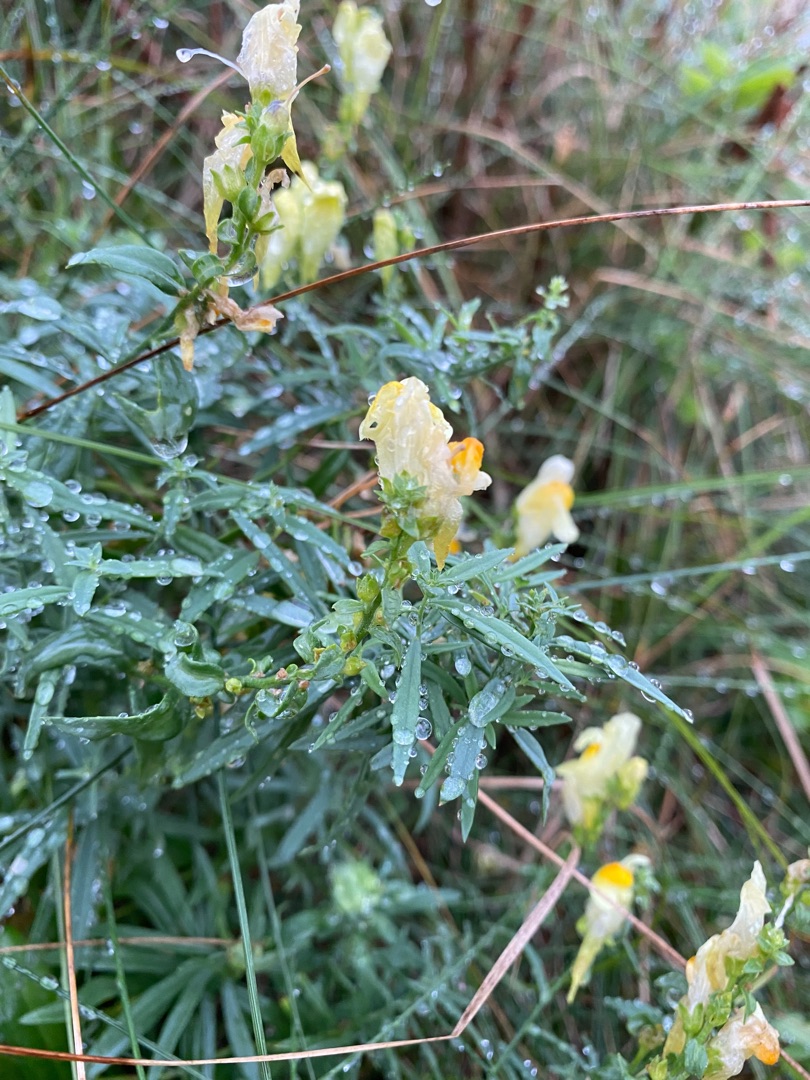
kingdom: Plantae
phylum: Tracheophyta
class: Magnoliopsida
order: Lamiales
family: Plantaginaceae
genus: Linaria
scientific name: Linaria vulgaris
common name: Almindelig torskemund
